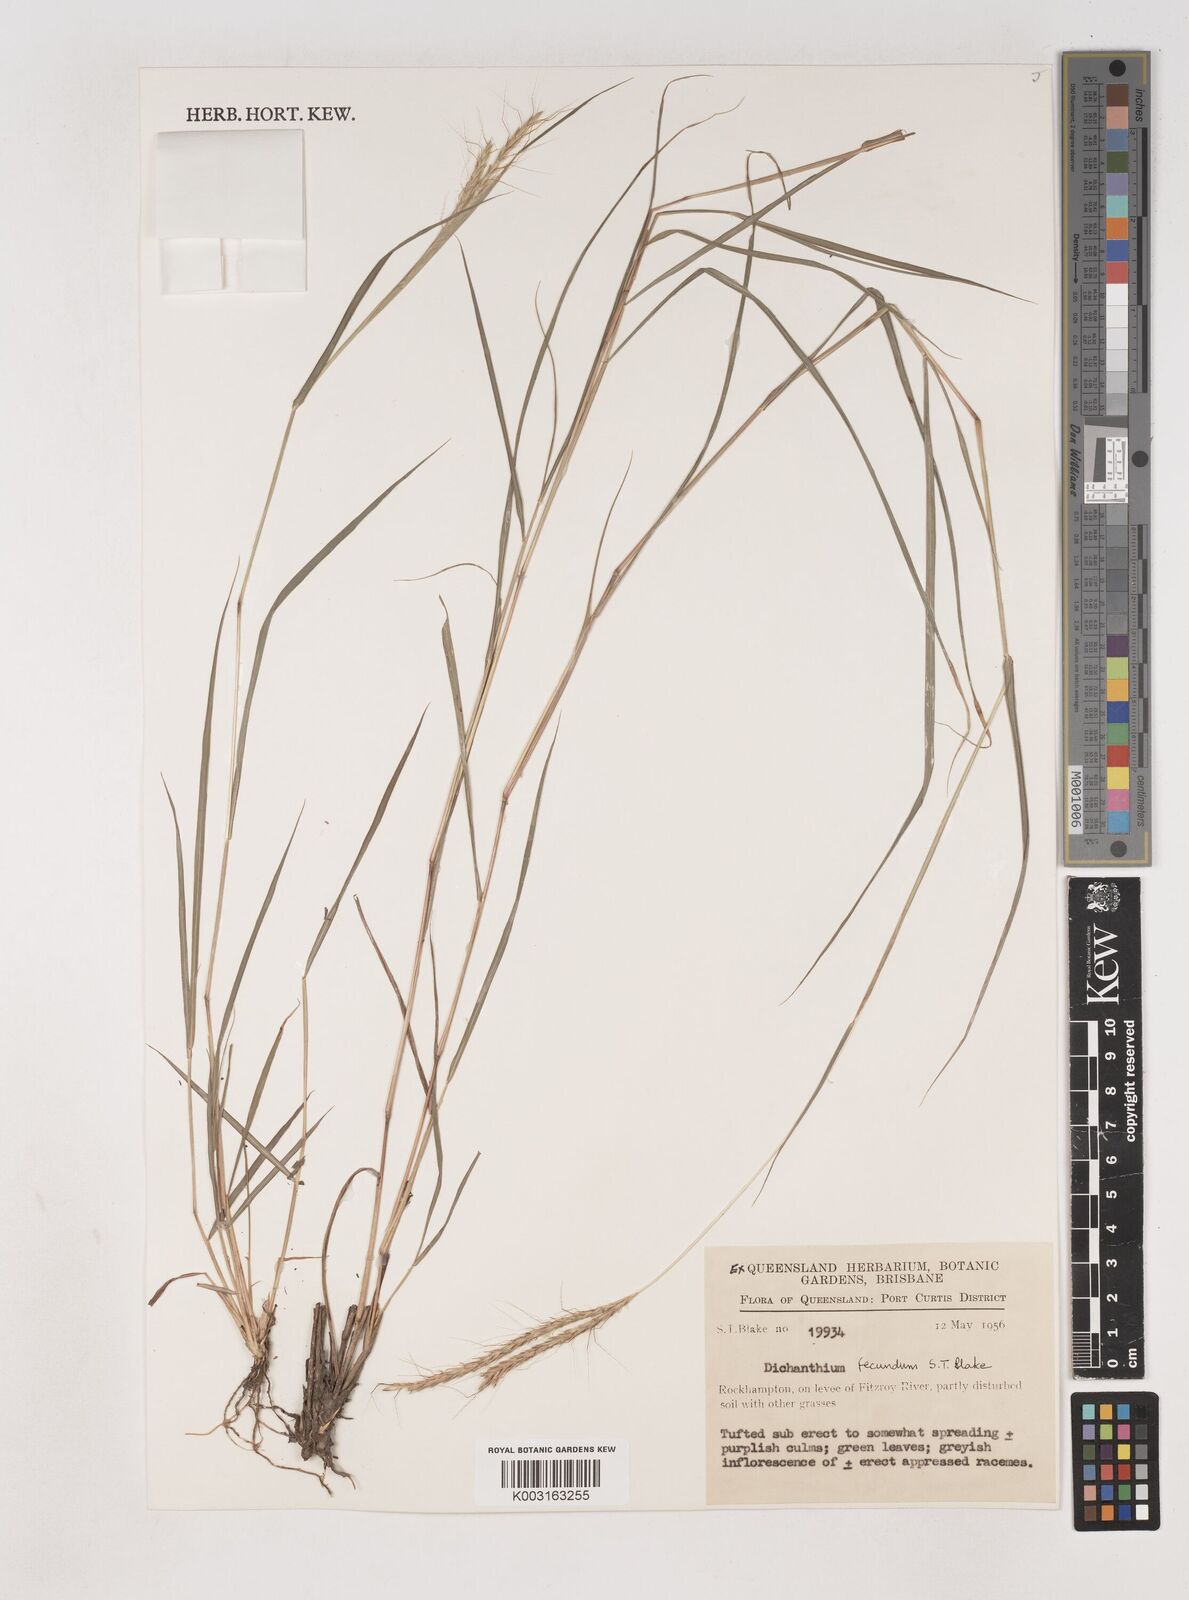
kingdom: Plantae
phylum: Tracheophyta
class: Liliopsida
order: Poales
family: Poaceae
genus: Dichanthium
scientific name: Dichanthium fecundum
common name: Bundle-bundle
